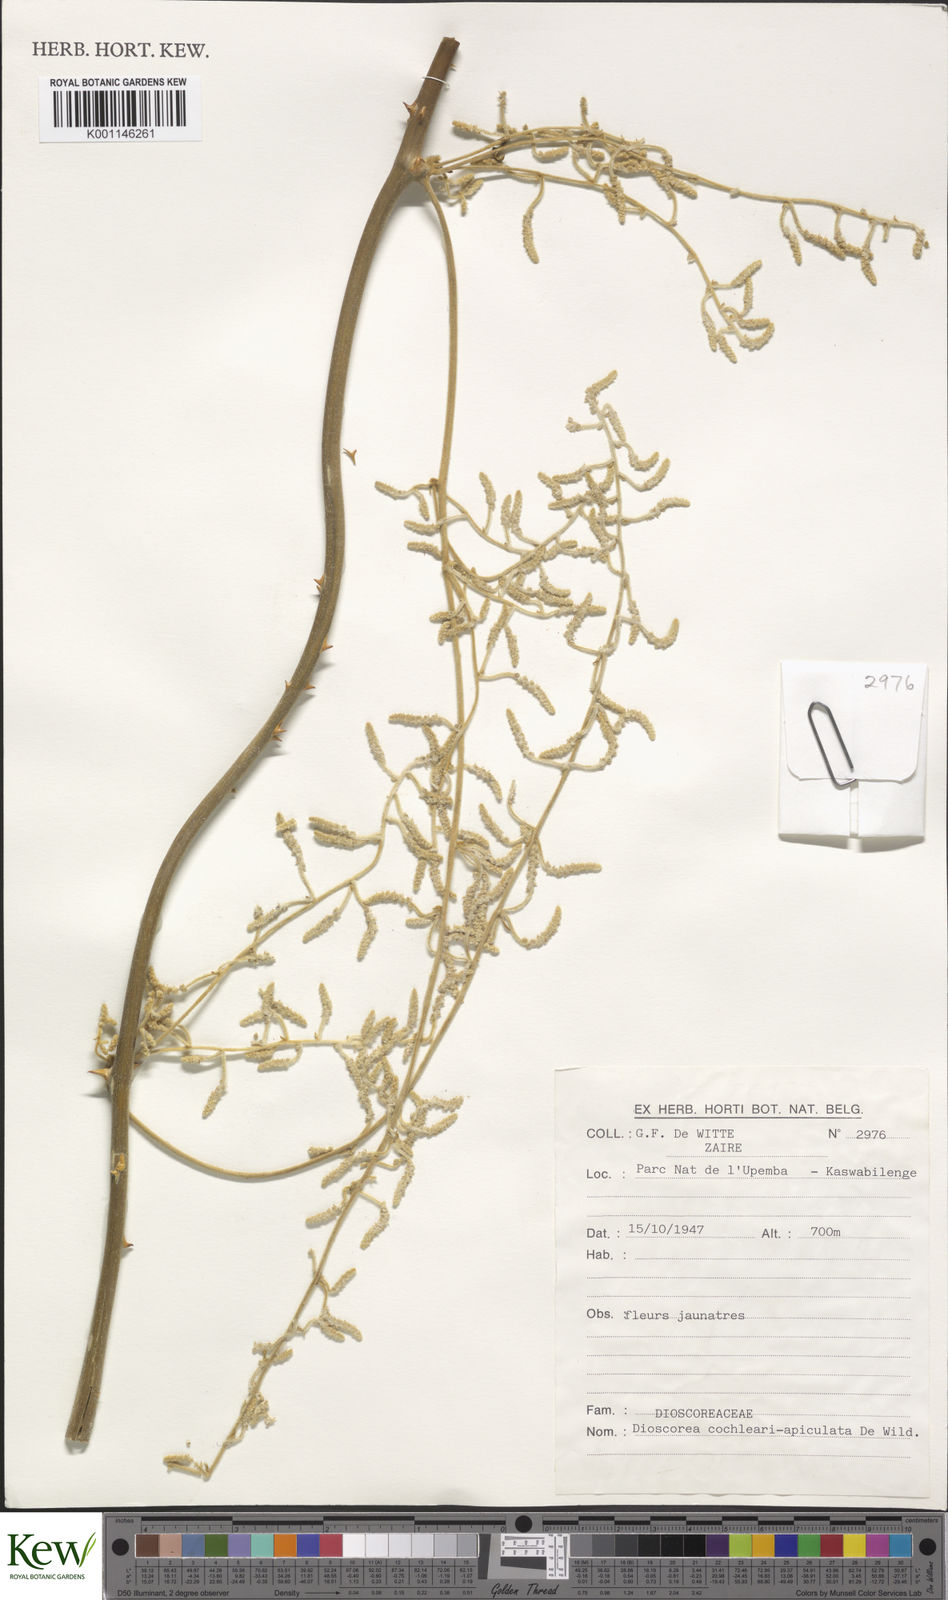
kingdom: Plantae
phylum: Tracheophyta
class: Liliopsida
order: Dioscoreales
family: Dioscoreaceae
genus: Dioscorea
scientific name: Dioscorea cochleariapiculata
